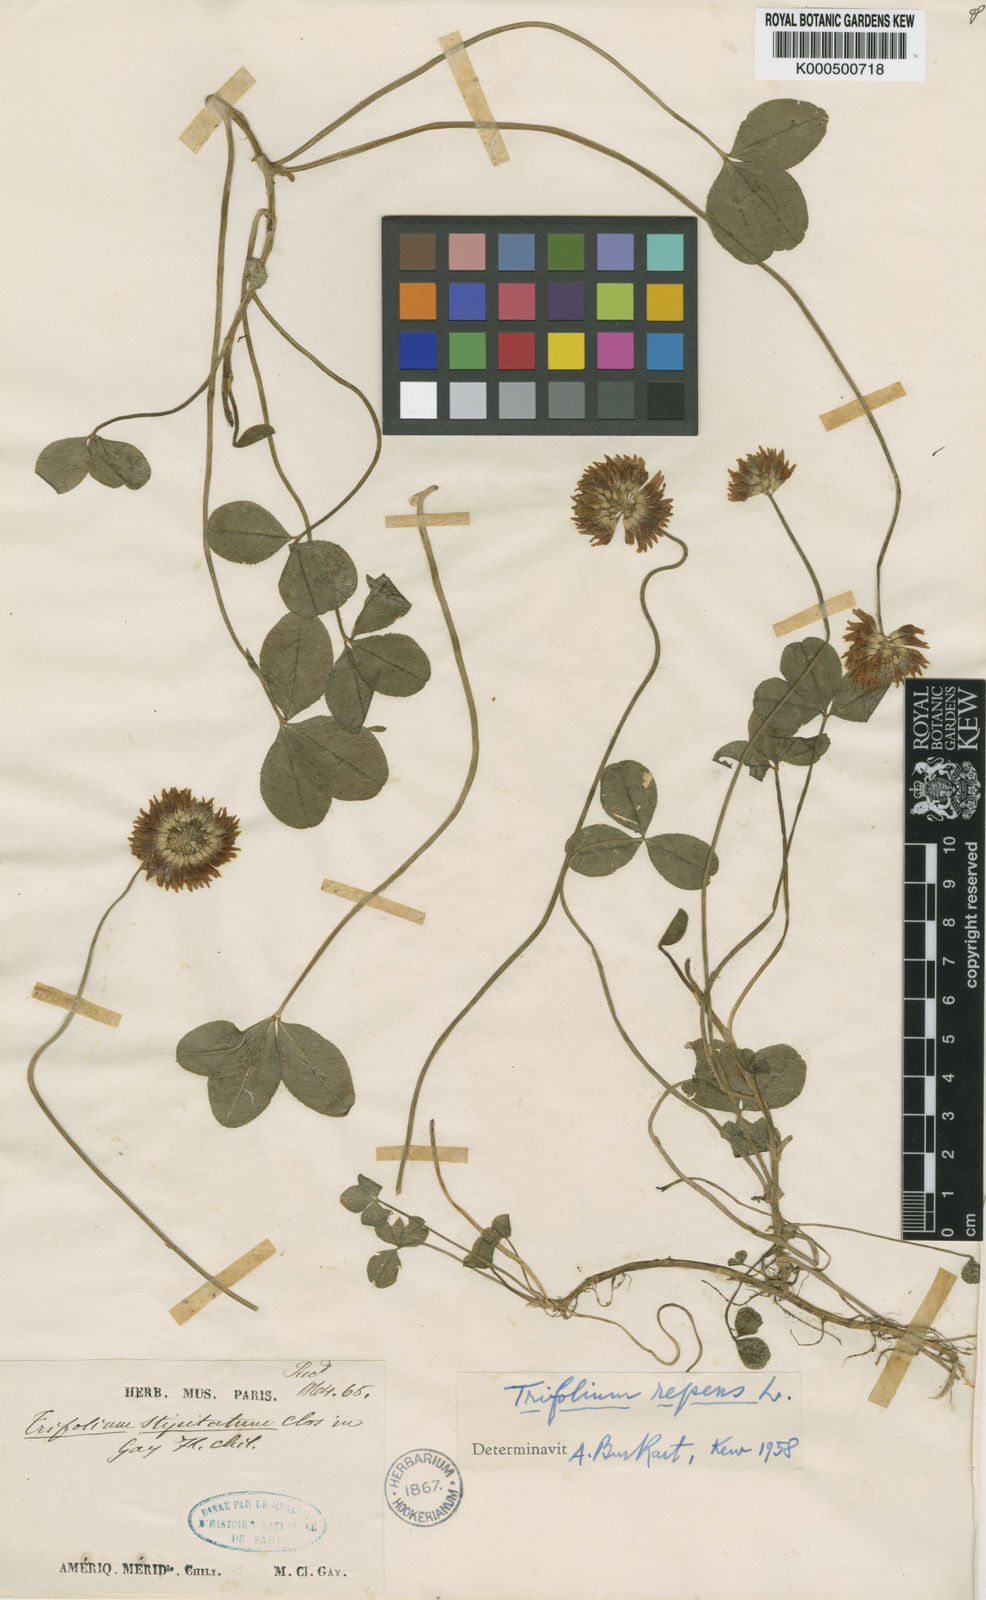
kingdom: Plantae
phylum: Tracheophyta
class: Magnoliopsida
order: Fabales
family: Fabaceae
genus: Trifolium
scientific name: Trifolium repens
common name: White clover
